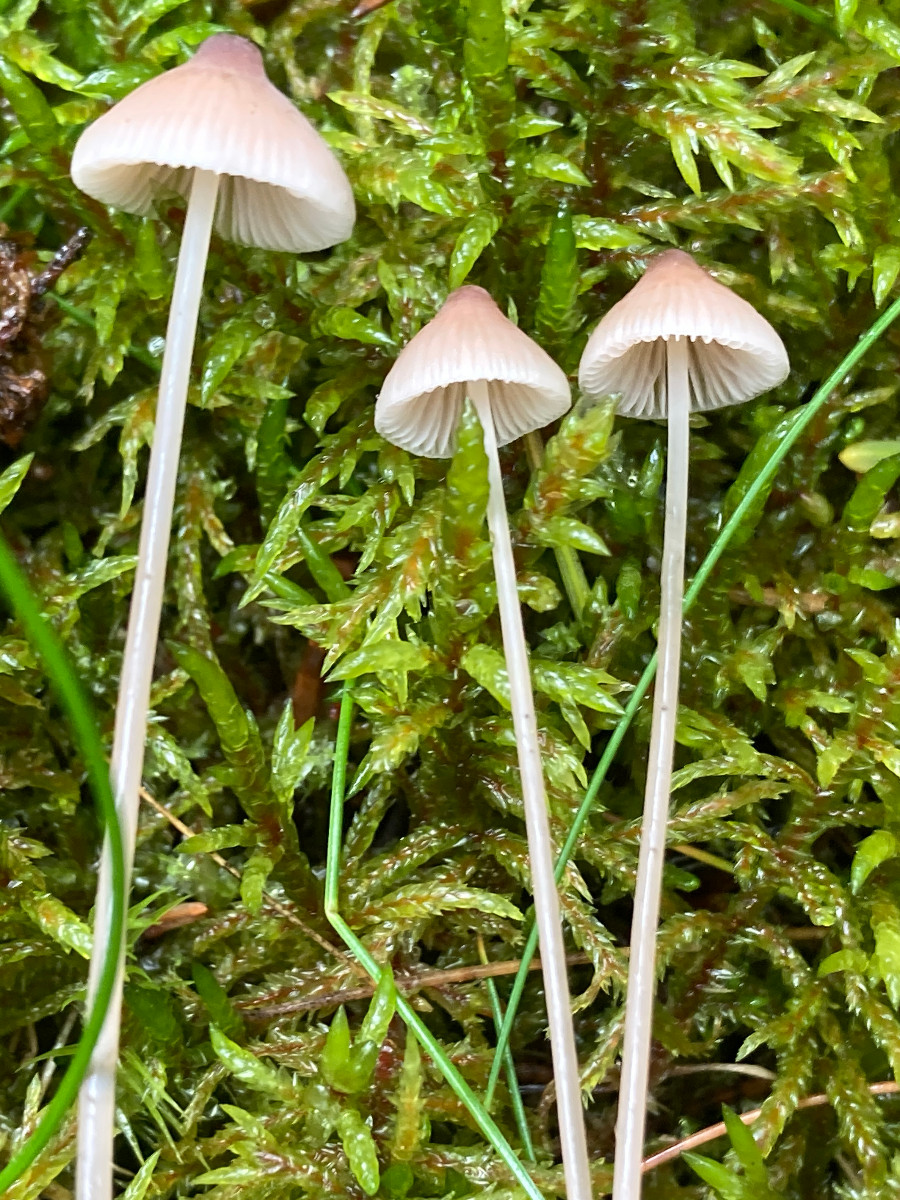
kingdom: Fungi
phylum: Basidiomycota
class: Agaricomycetes
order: Agaricales
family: Mycenaceae
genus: Mycena
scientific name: Mycena
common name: huesvamp
